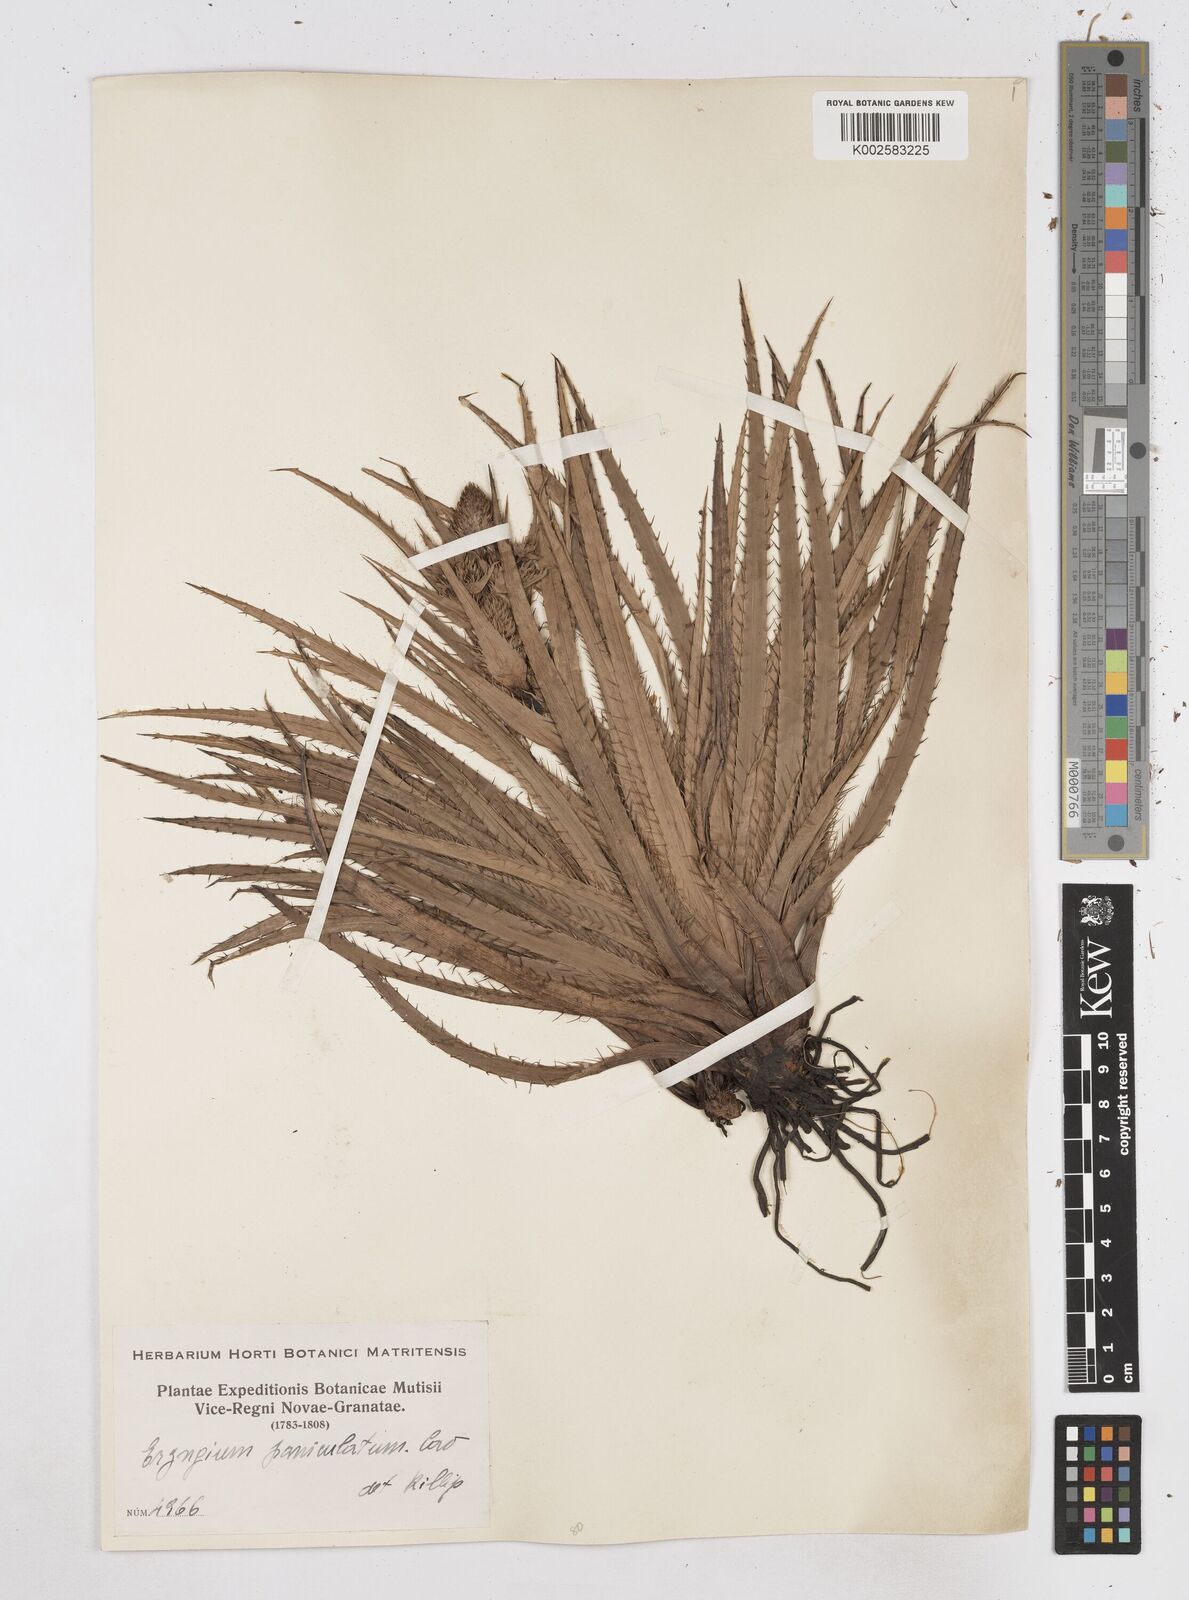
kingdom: Plantae
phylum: Tracheophyta
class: Magnoliopsida
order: Apiales
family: Apiaceae
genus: Eryngium
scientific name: Eryngium humboldtii
